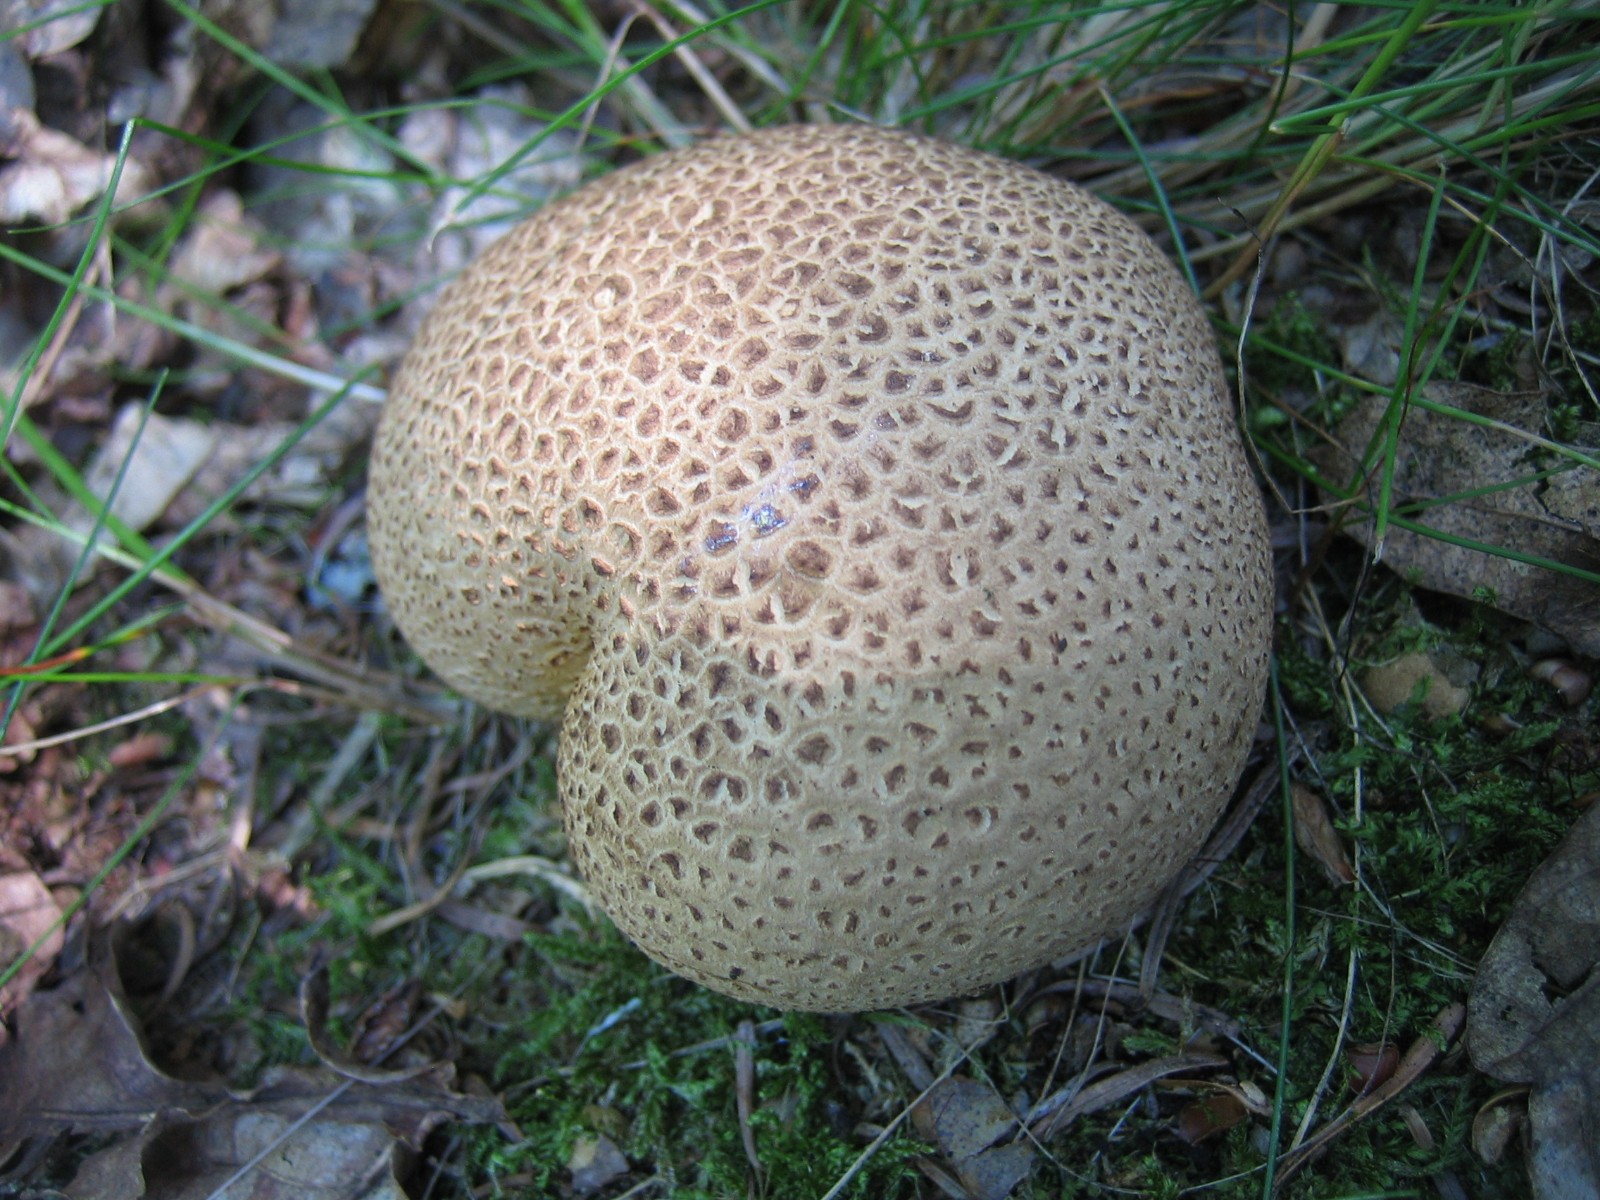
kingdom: Fungi
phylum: Basidiomycota
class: Agaricomycetes
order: Boletales
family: Sclerodermataceae
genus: Scleroderma
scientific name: Scleroderma citrinum
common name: almindelig bruskbold
